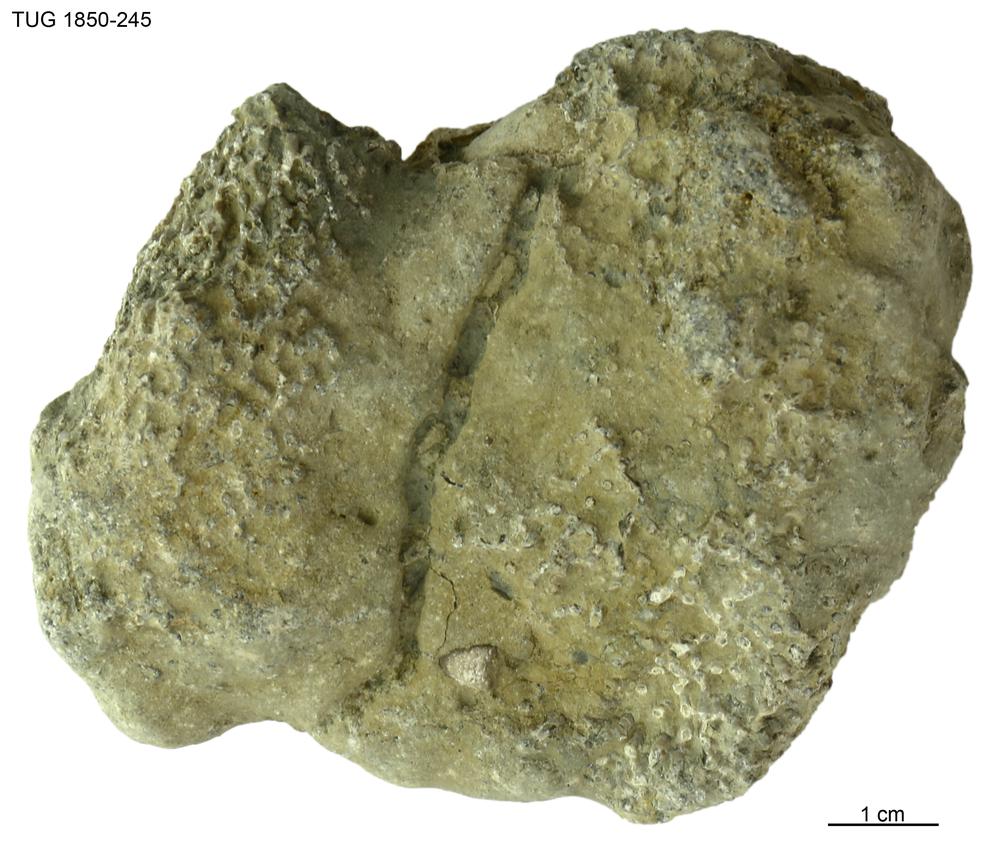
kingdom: Animalia
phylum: Cnidaria
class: Anthozoa
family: Syringoporidae
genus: Syringopora
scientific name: Syringopora
